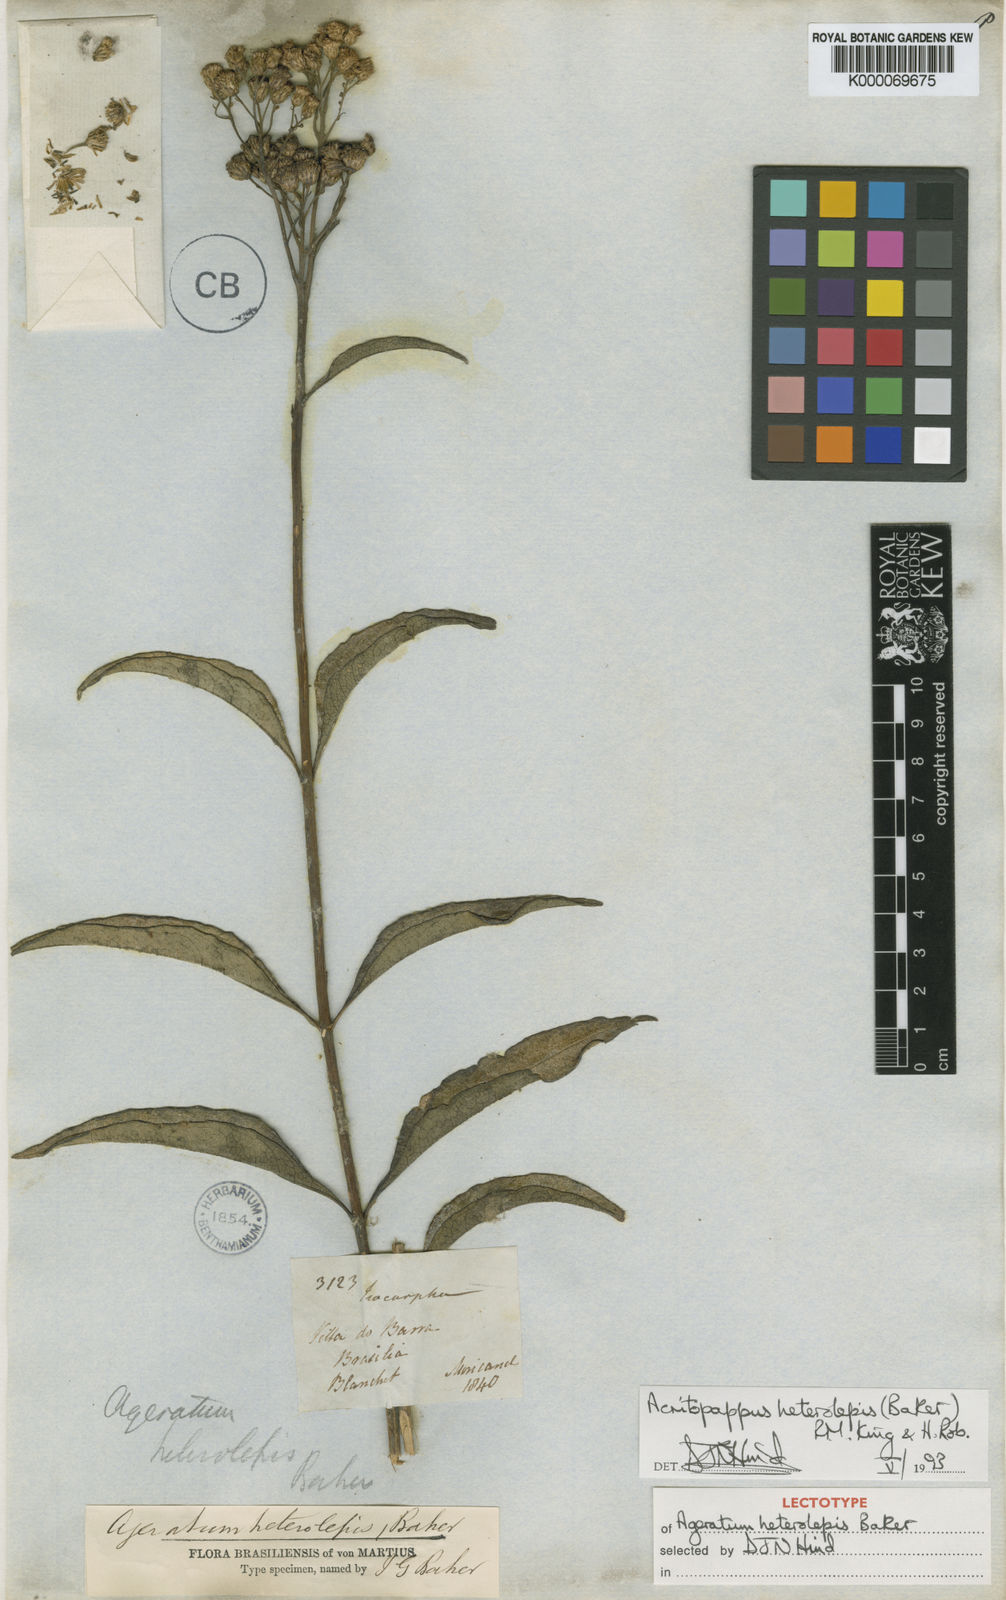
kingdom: Plantae
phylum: Tracheophyta
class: Magnoliopsida
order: Asterales
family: Asteraceae
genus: Acritopappus
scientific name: Acritopappus heterolepis
